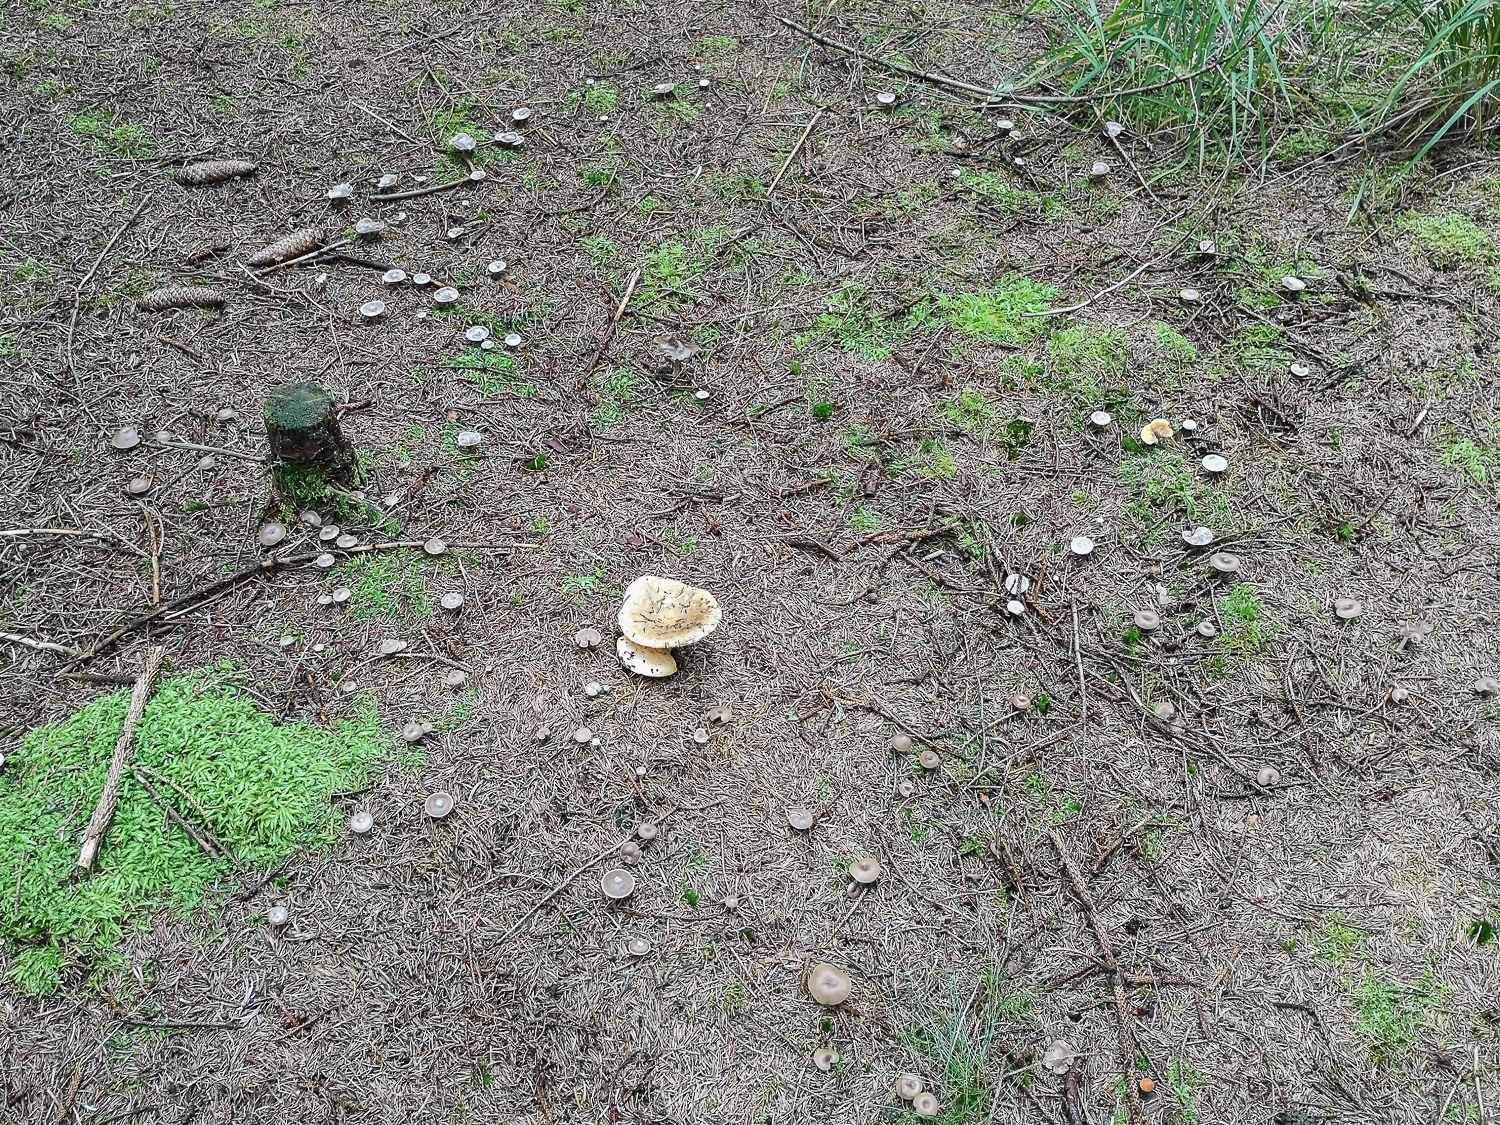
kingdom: Fungi
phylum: Basidiomycota
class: Agaricomycetes
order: Agaricales
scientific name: Agaricales
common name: champignonordenen
